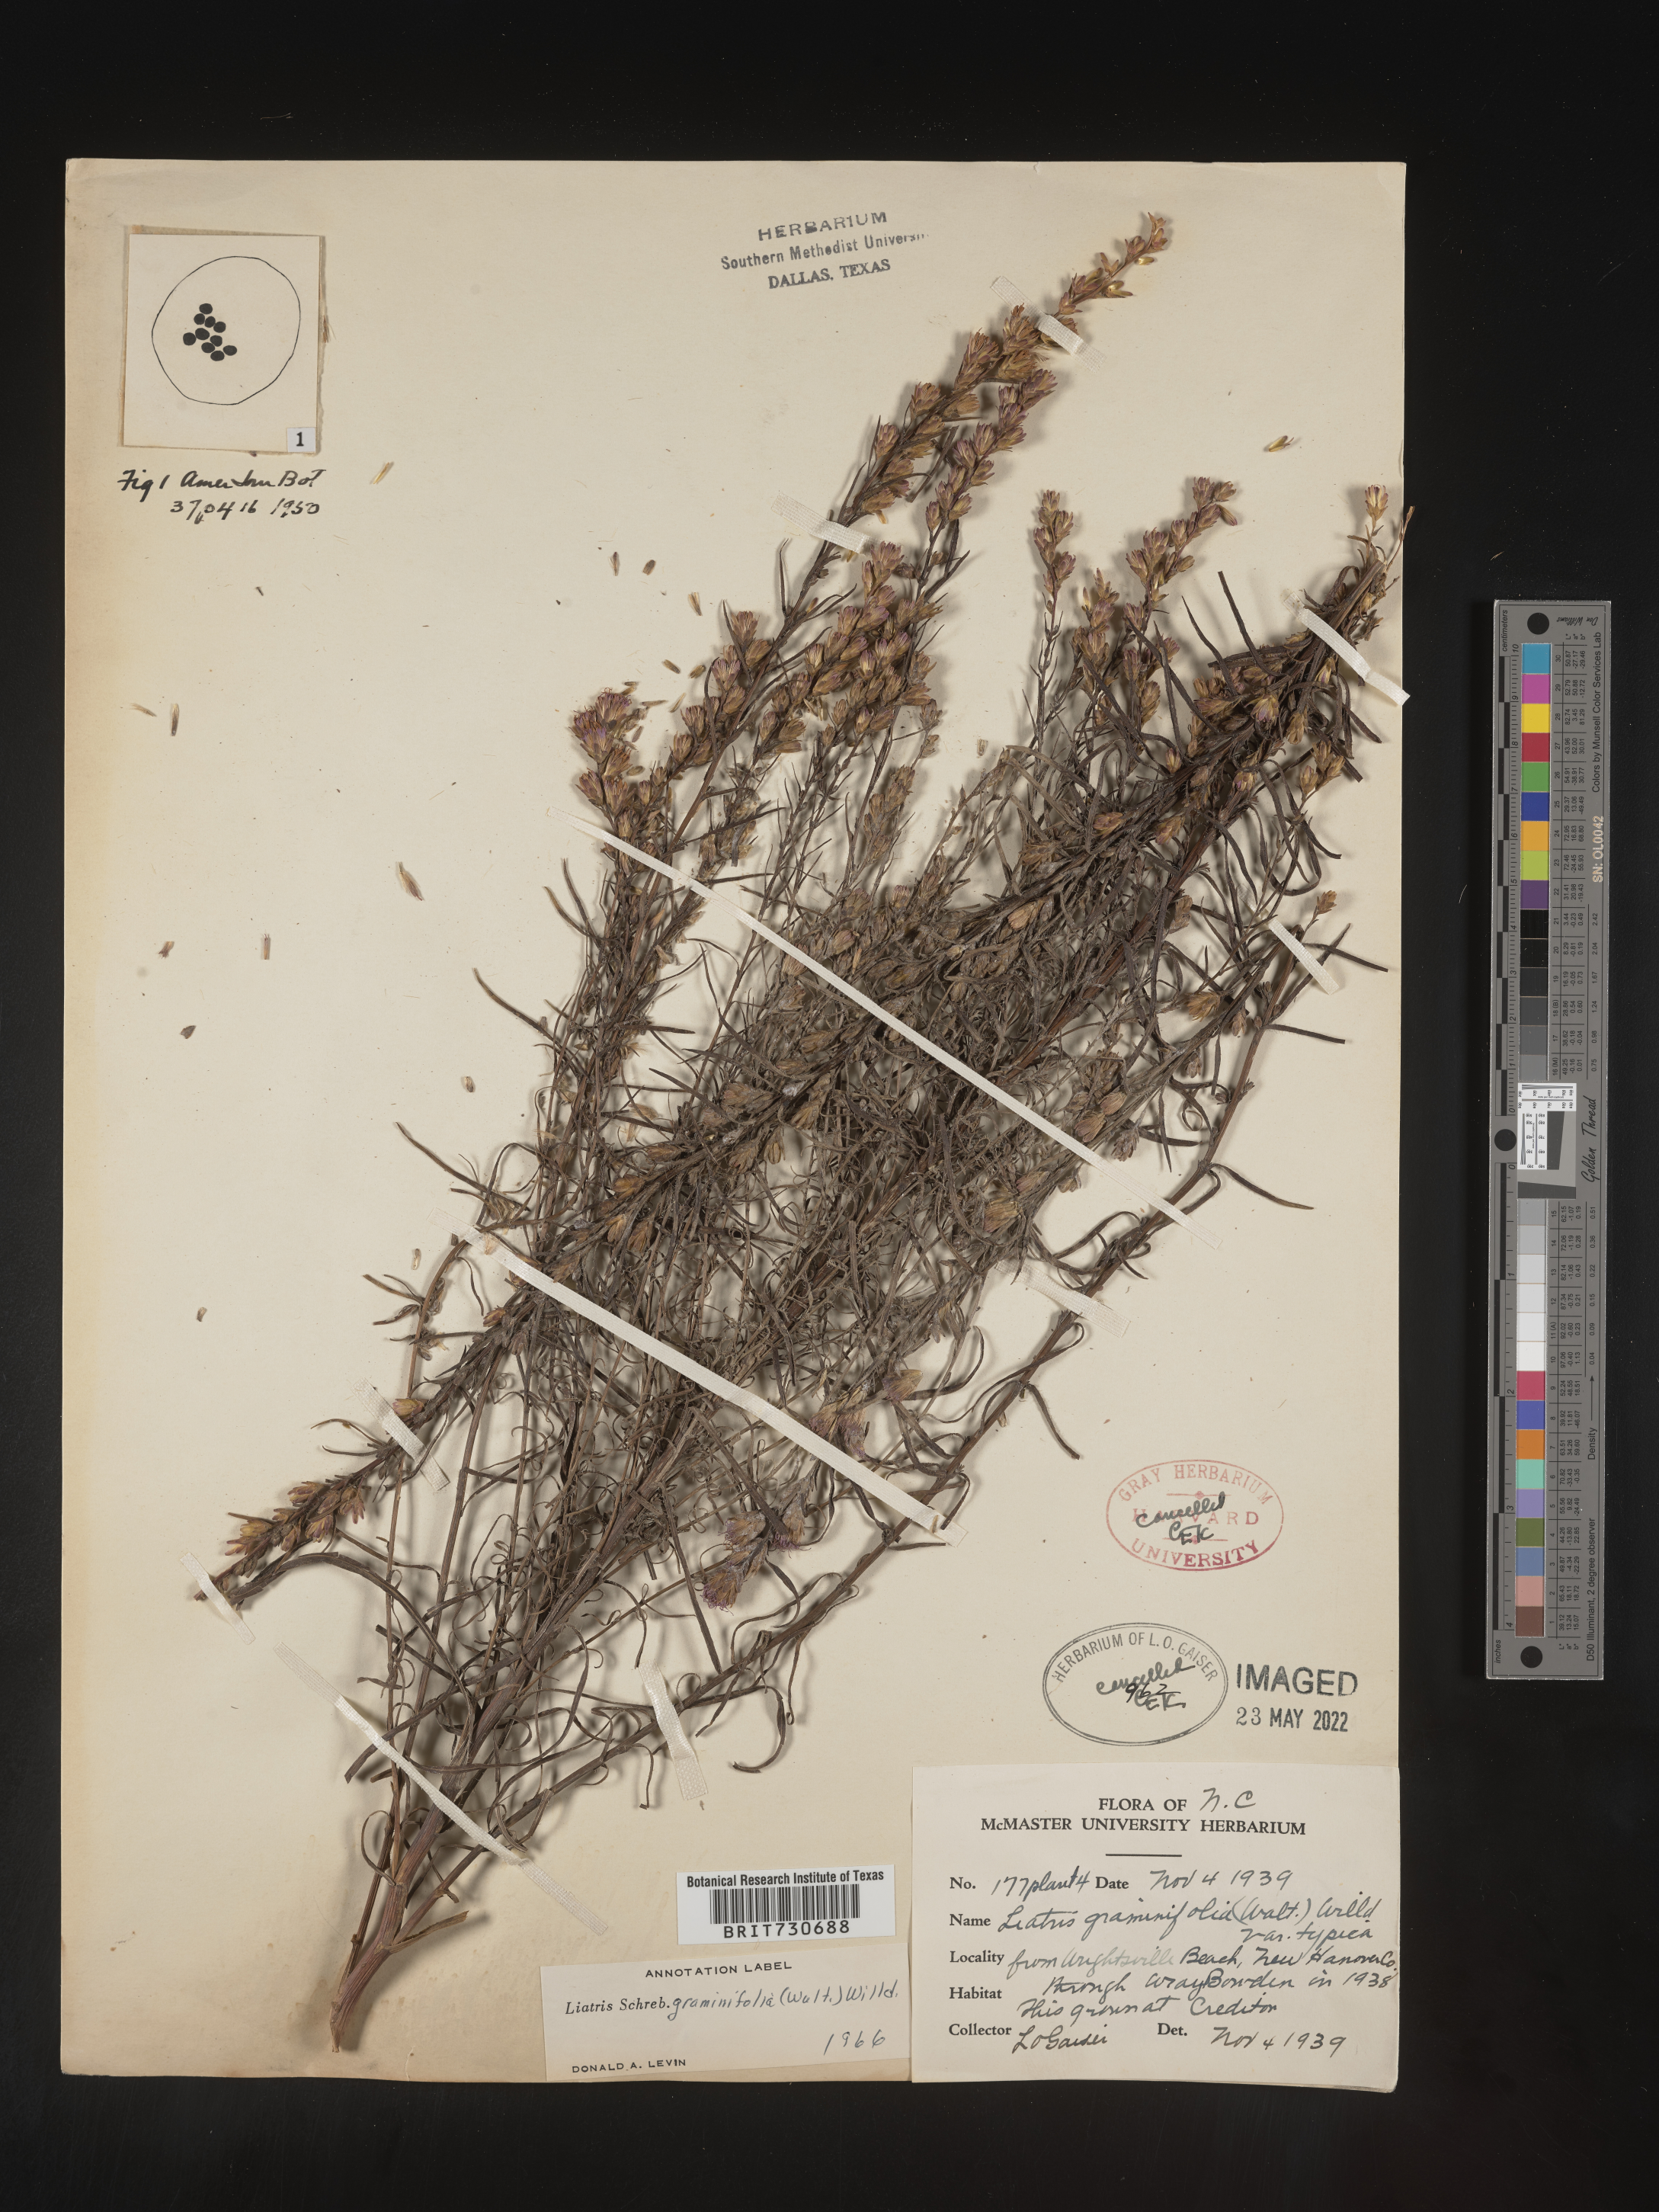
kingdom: Plantae
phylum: Tracheophyta
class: Magnoliopsida
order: Asterales
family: Asteraceae
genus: Liatris
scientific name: Liatris pilosa
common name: Grass-leaf gayfeather
